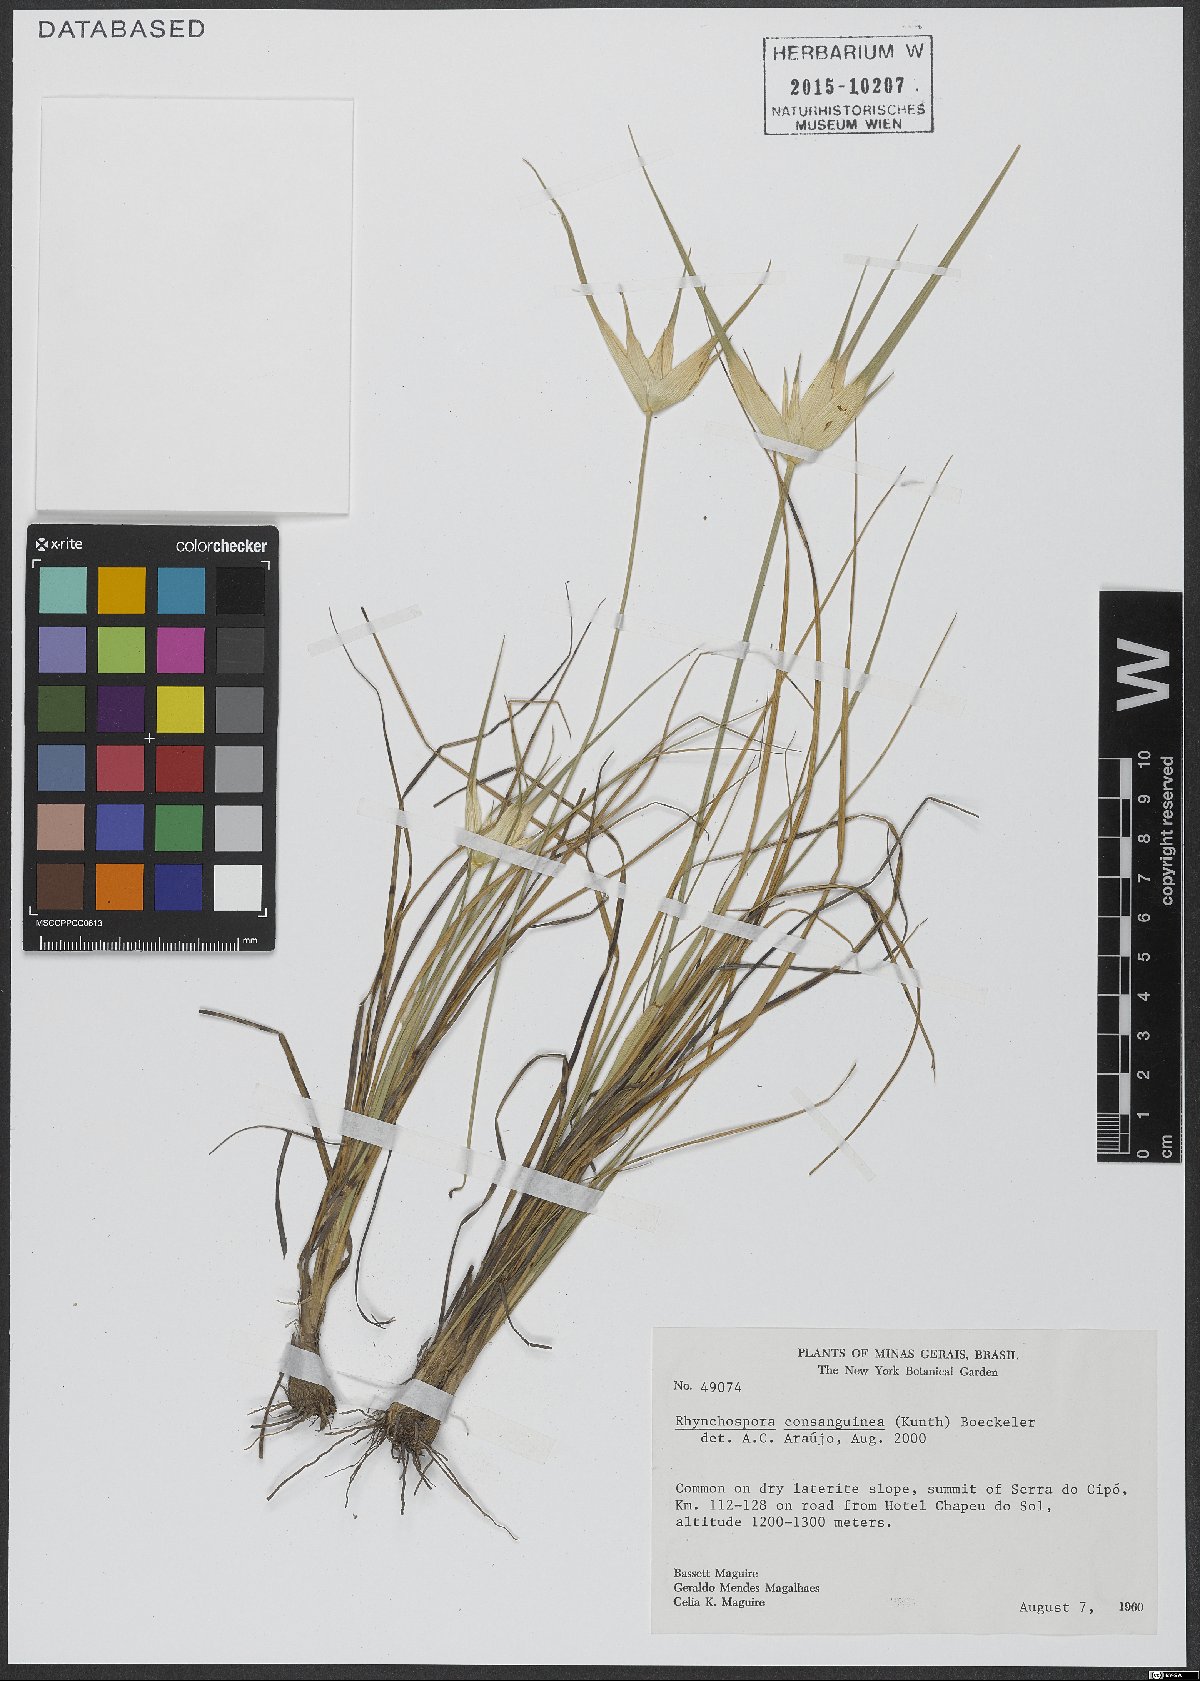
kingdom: Plantae
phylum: Tracheophyta
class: Liliopsida
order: Poales
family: Cyperaceae
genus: Rhynchospora
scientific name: Rhynchospora consanguinea
